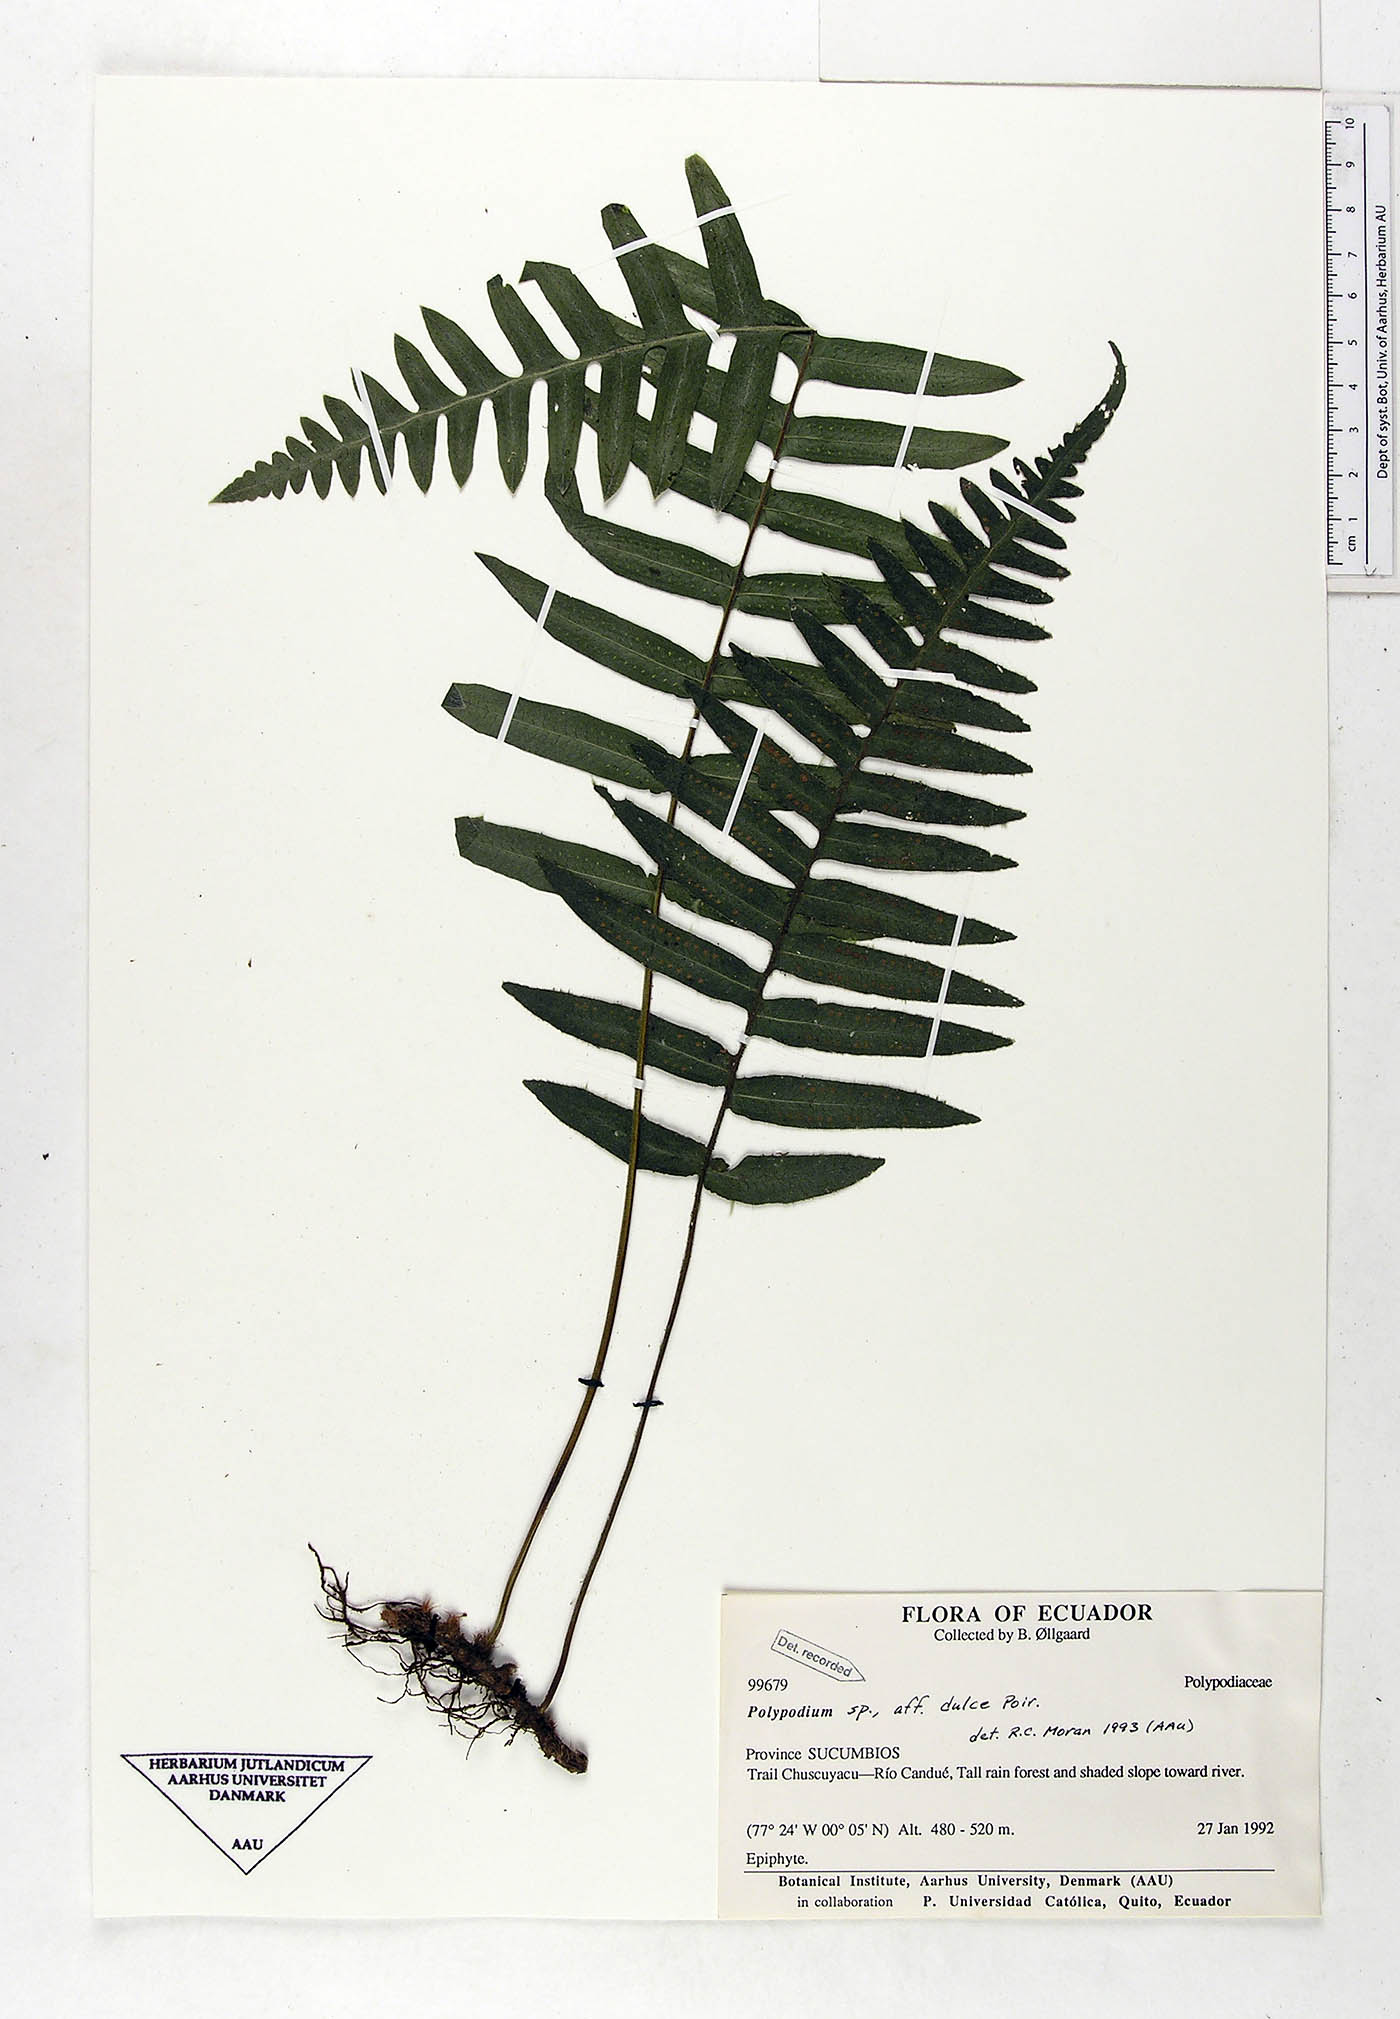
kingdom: Plantae
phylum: Tracheophyta
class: Polypodiopsida
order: Polypodiales
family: Polypodiaceae
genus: Pecluma
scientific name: Pecluma dulcis
